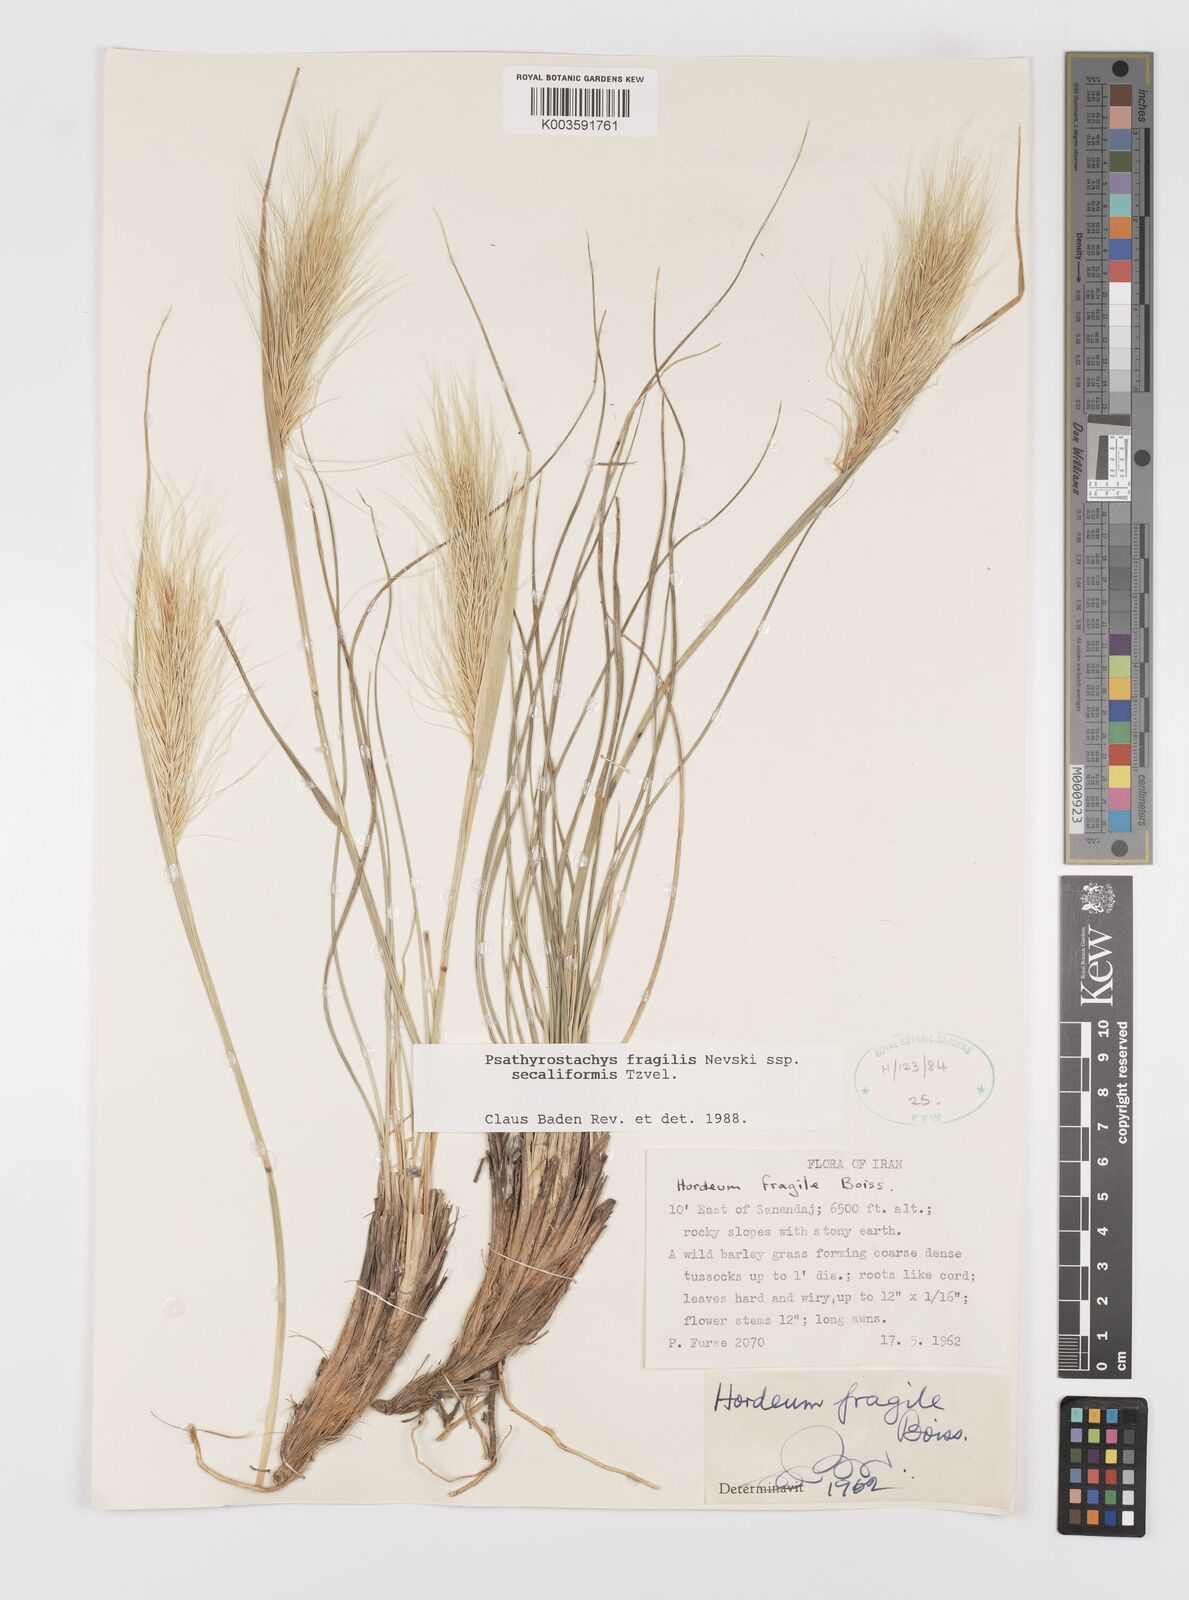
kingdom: Plantae
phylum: Tracheophyta
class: Liliopsida
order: Poales
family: Poaceae
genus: Psathyrostachys
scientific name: Psathyrostachys fragilis
